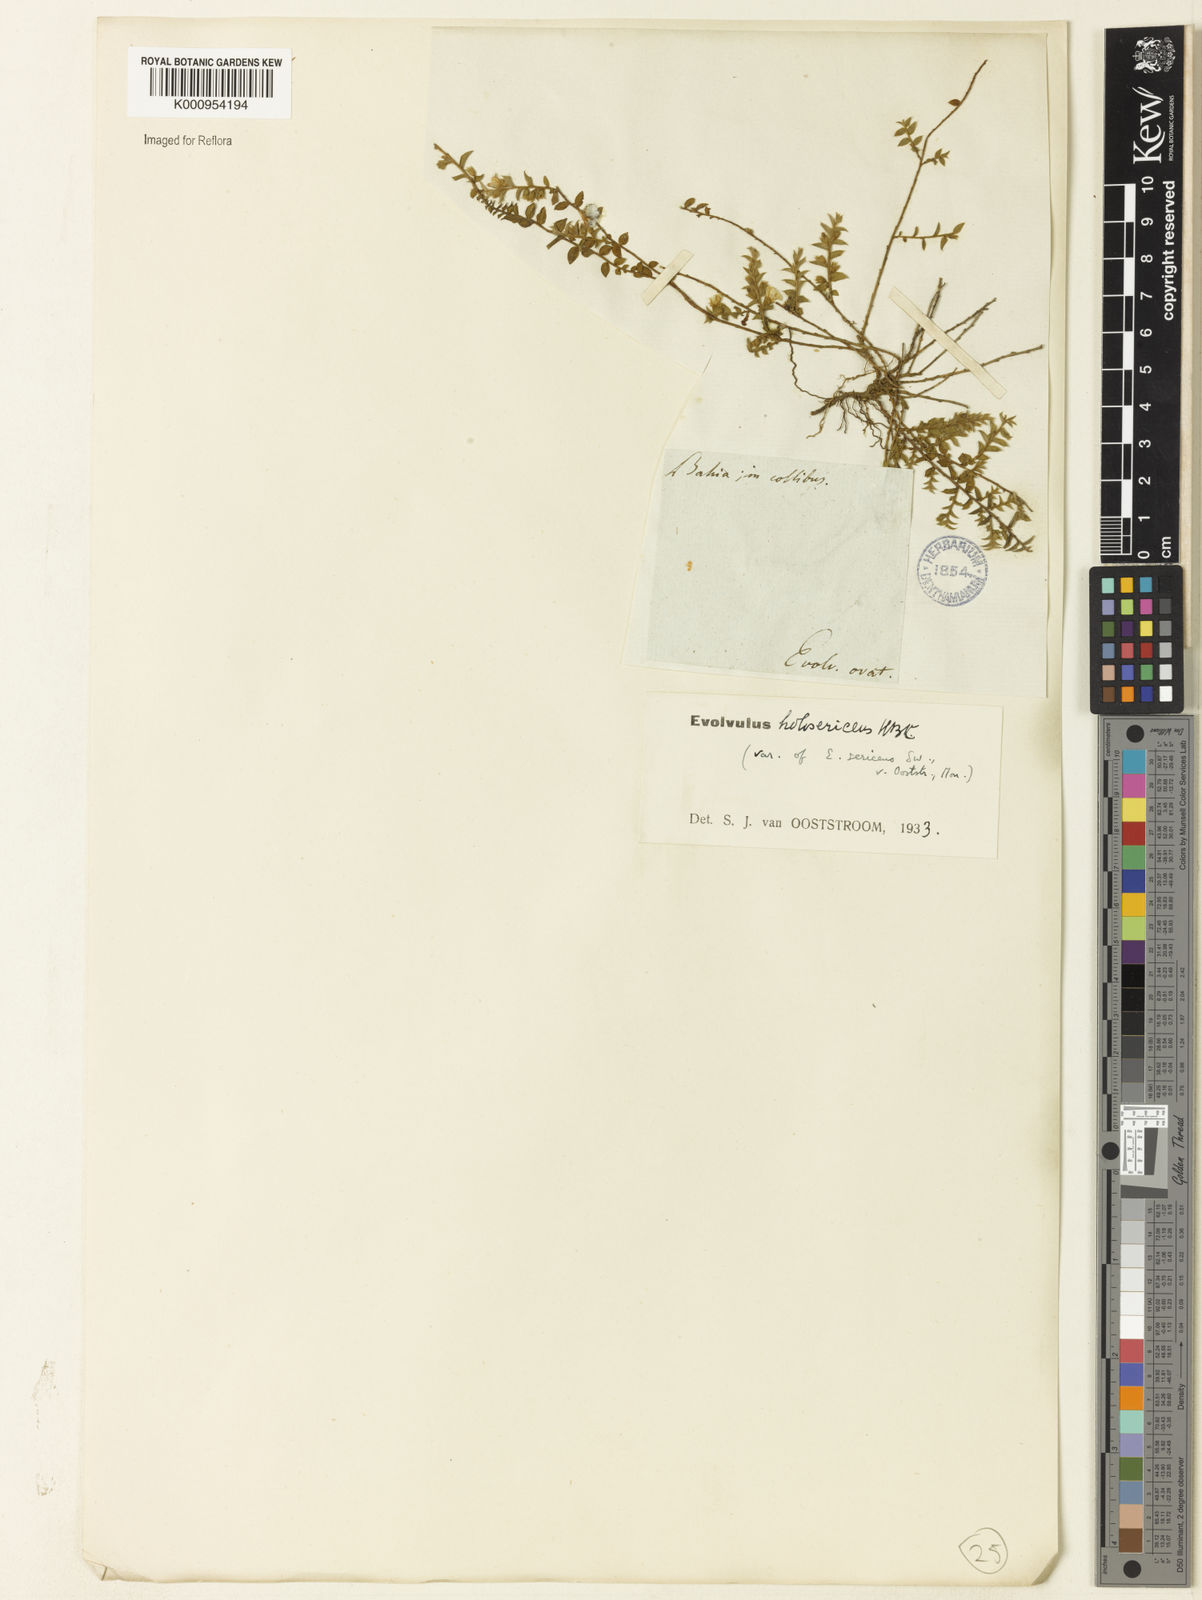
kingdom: Plantae
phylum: Tracheophyta
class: Magnoliopsida
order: Solanales
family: Convolvulaceae
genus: Evolvulus
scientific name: Evolvulus sericeus
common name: Blue dots
